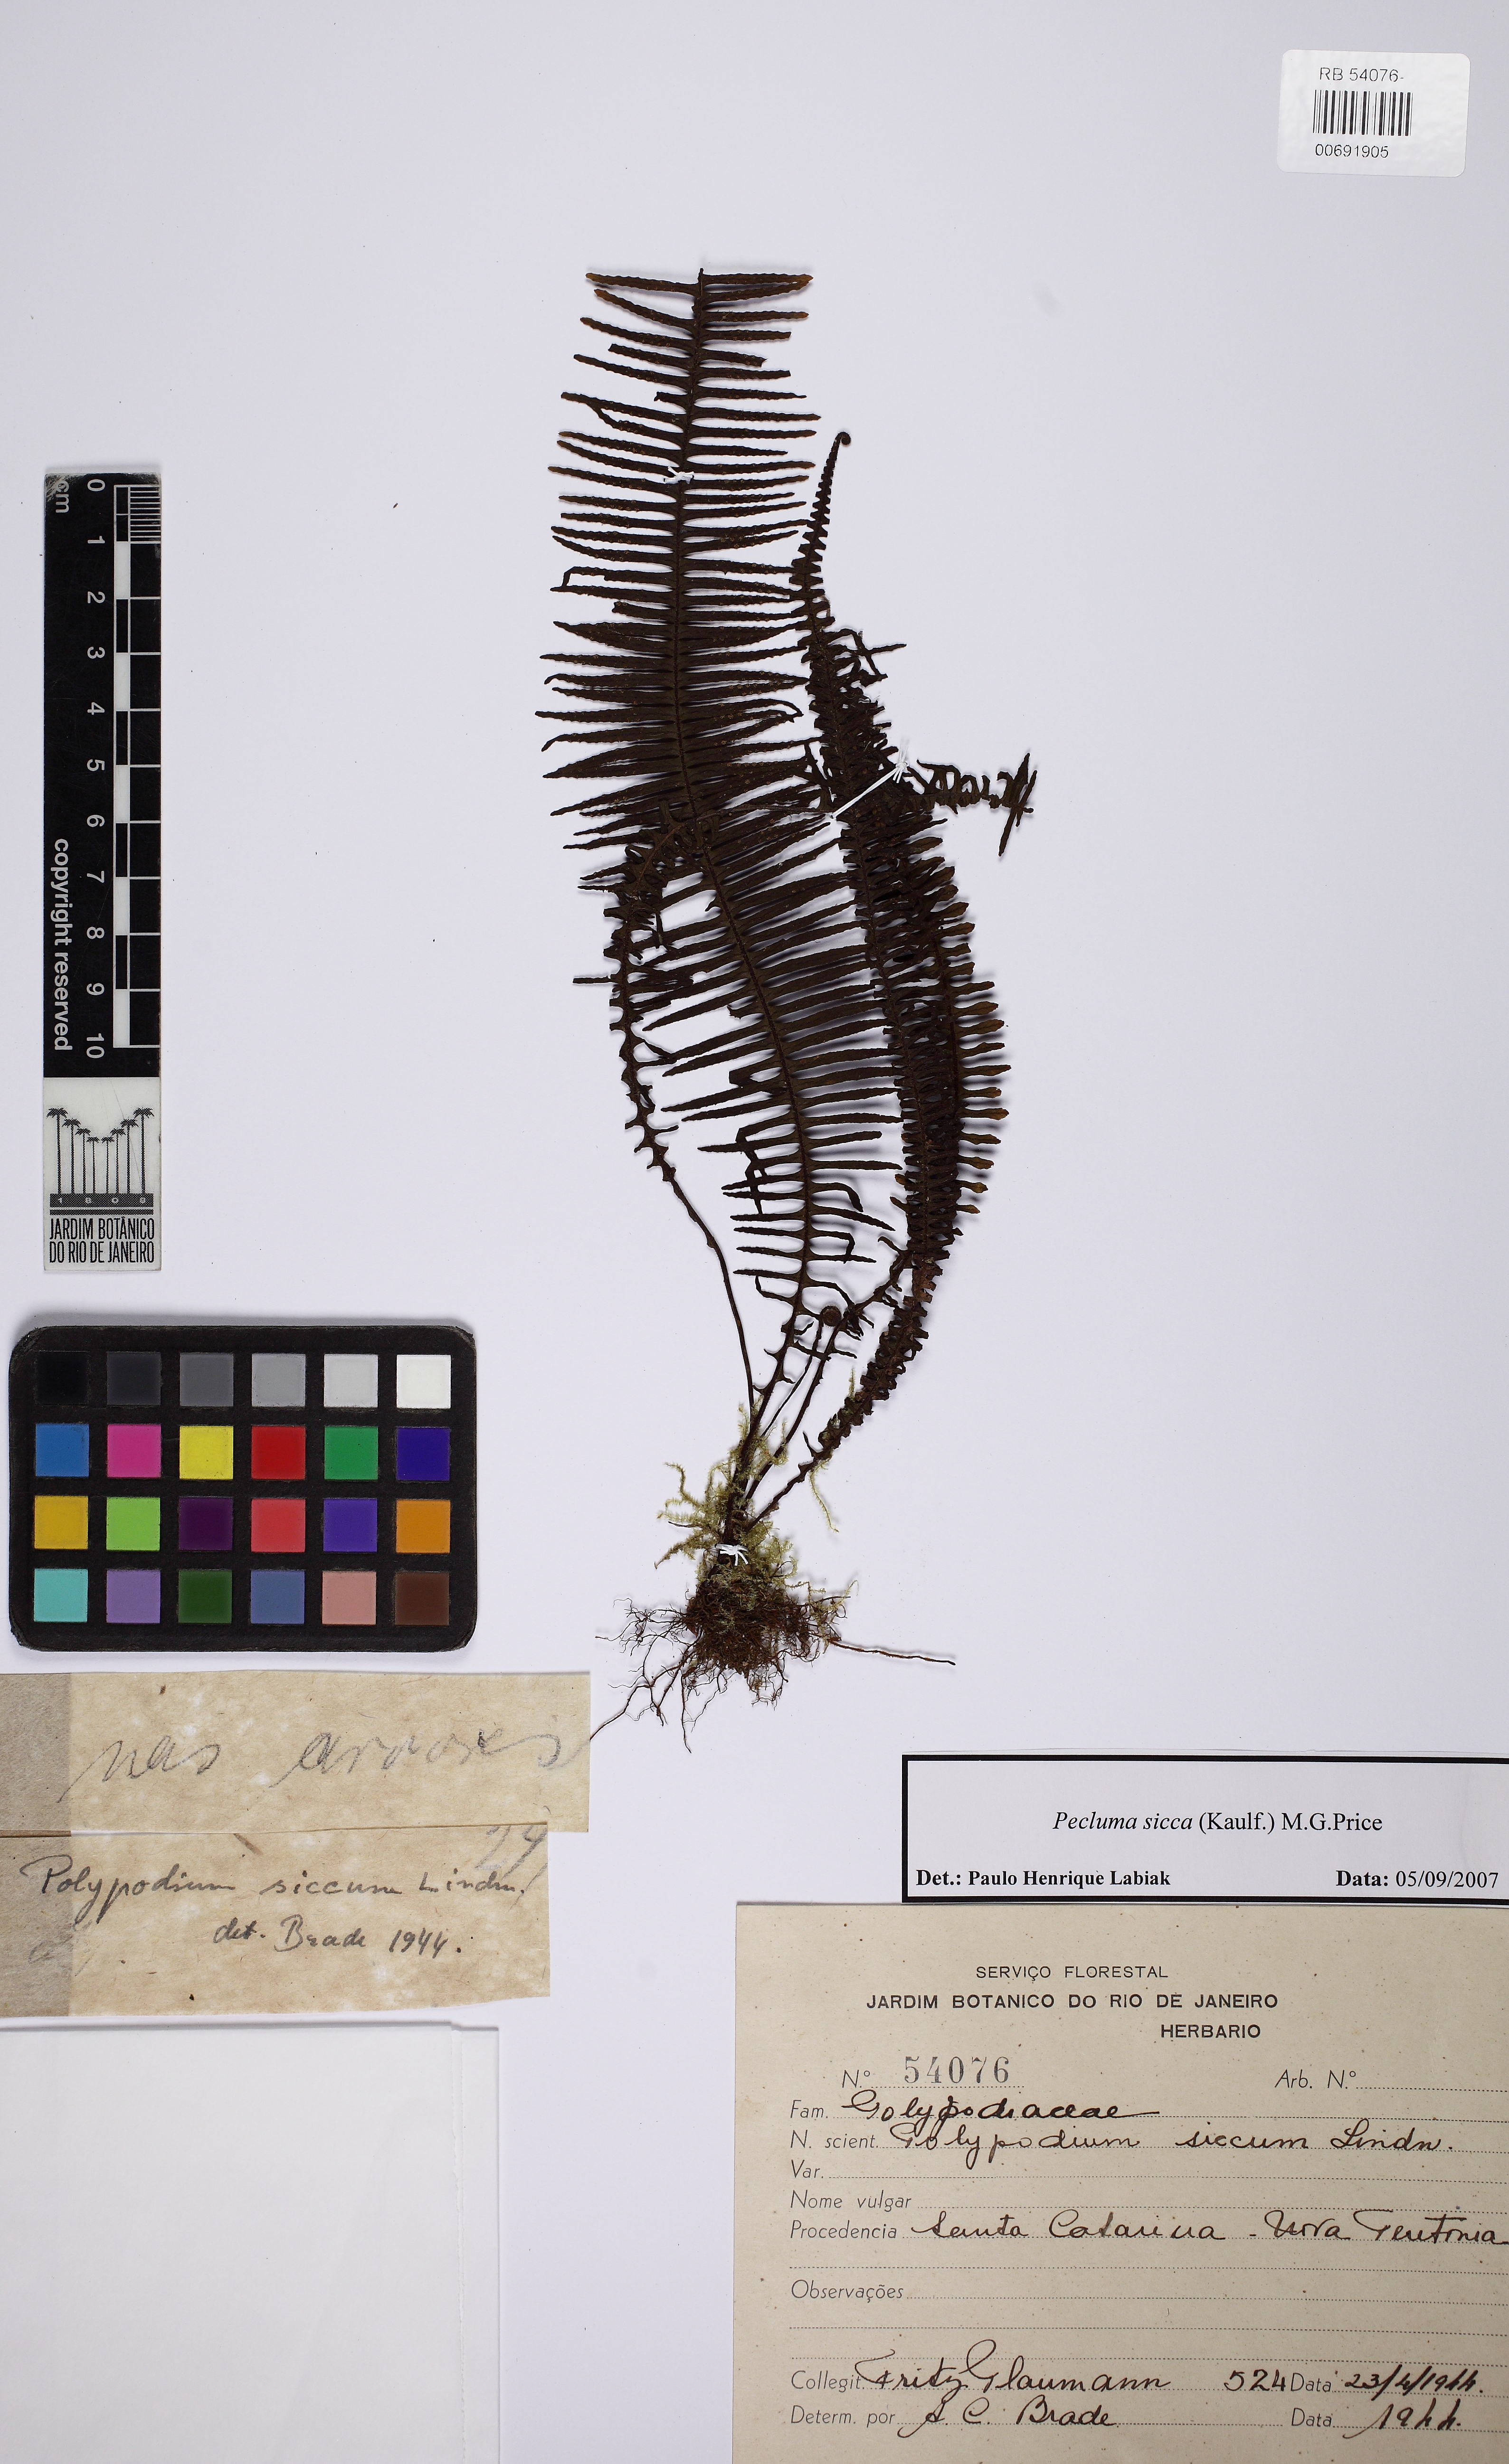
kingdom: Plantae
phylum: Tracheophyta
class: Polypodiopsida
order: Polypodiales
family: Polypodiaceae
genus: Pecluma
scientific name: Pecluma sicca
